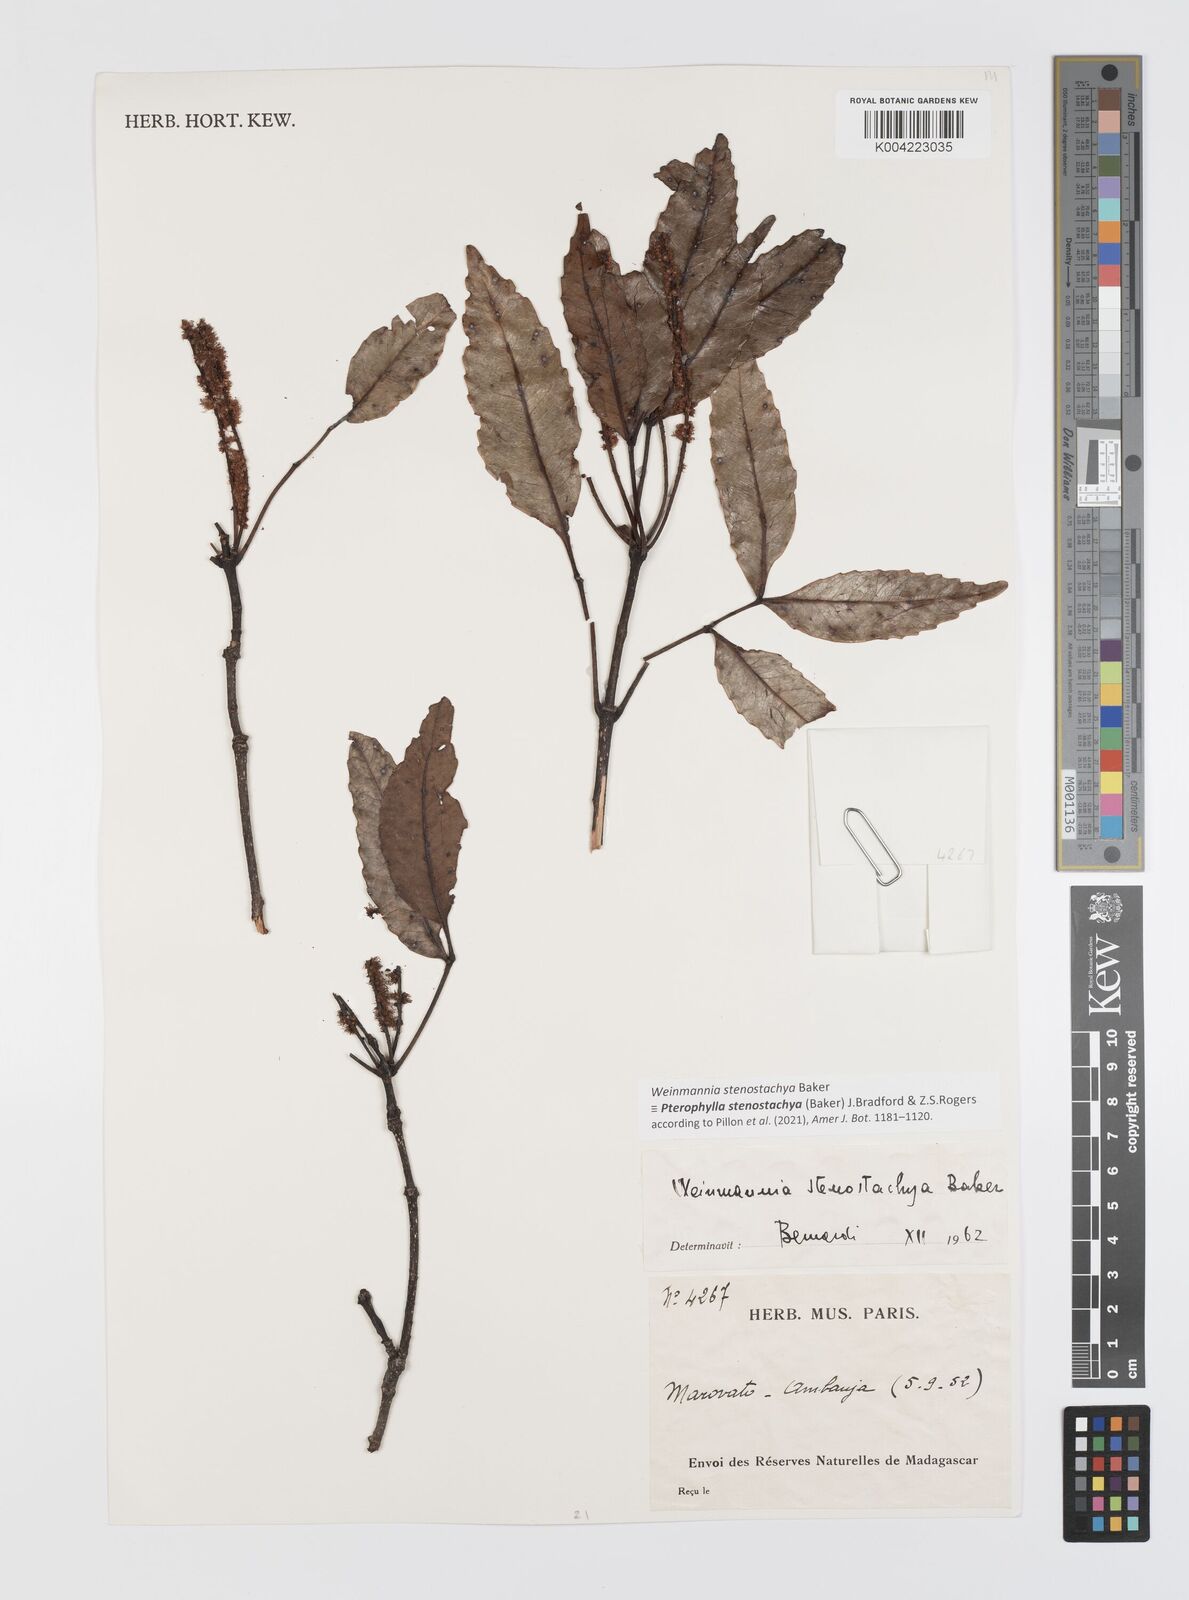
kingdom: Plantae
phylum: Tracheophyta
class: Magnoliopsida
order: Oxalidales
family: Cunoniaceae
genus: Pterophylla
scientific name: Pterophylla stenostachya
